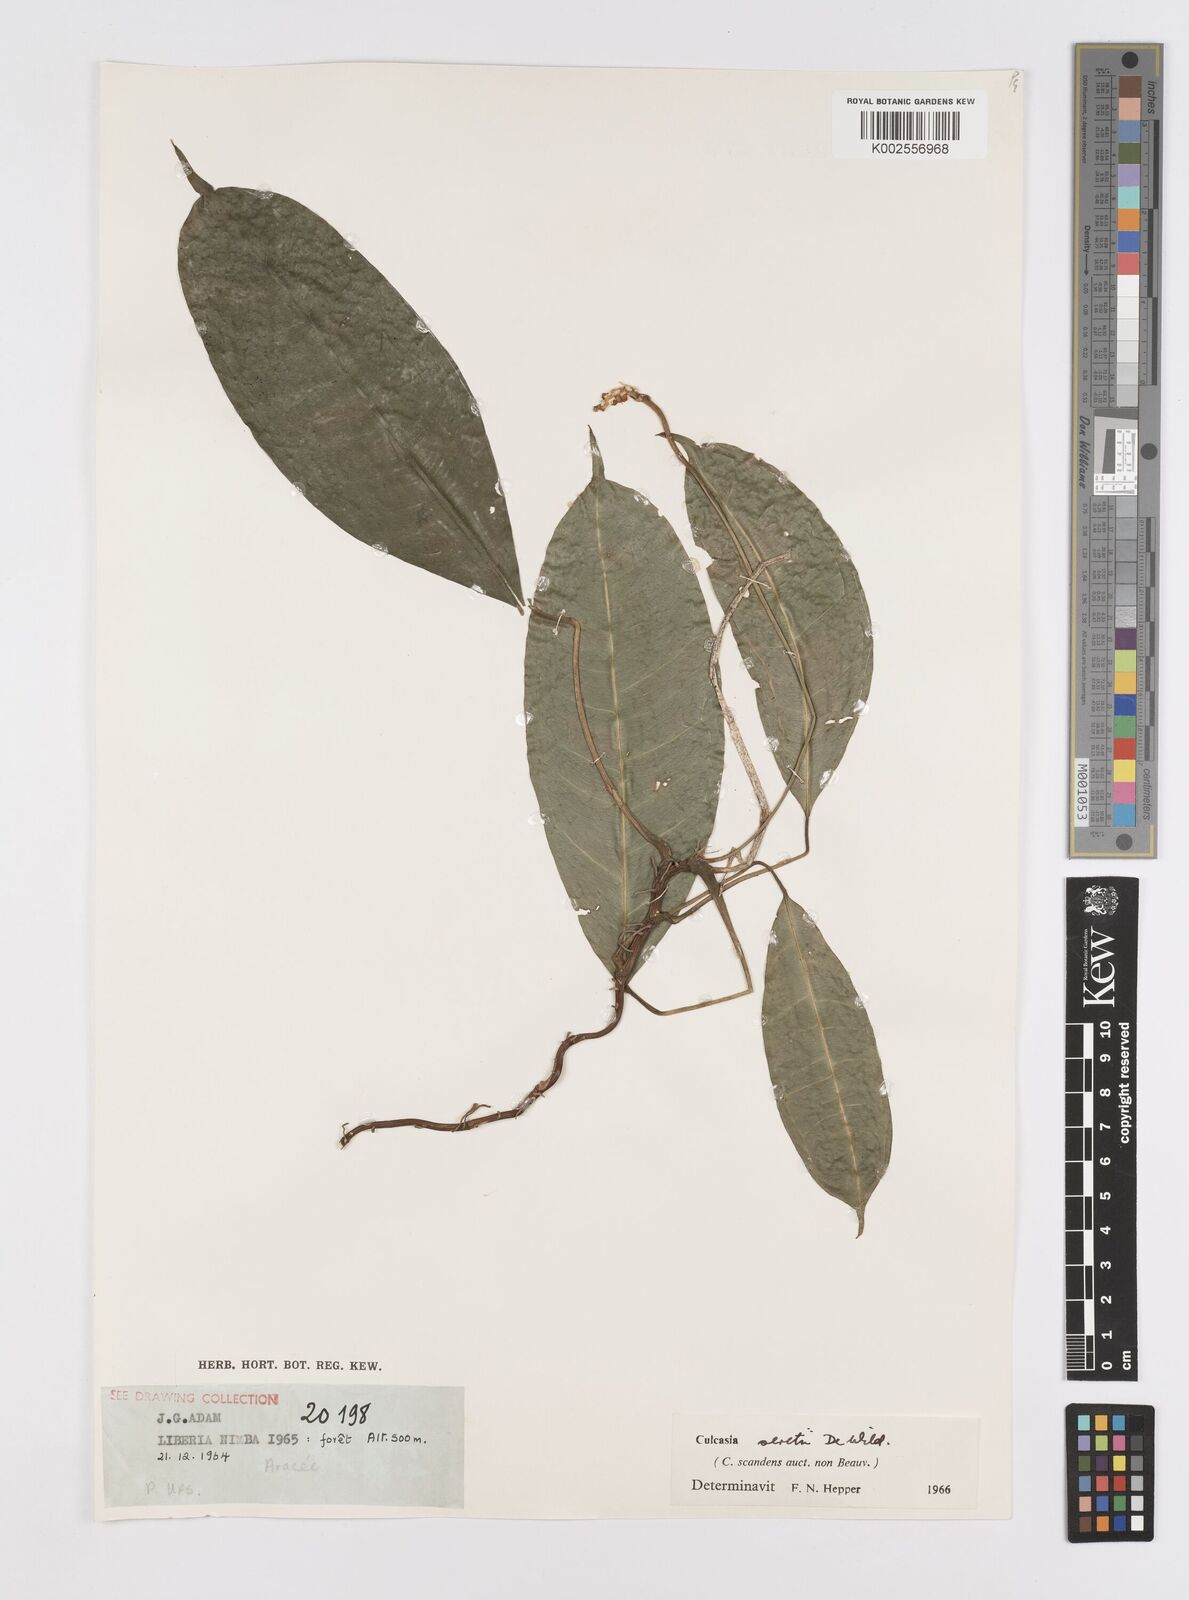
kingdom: Plantae
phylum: Tracheophyta
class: Liliopsida
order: Alismatales
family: Araceae
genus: Culcasia
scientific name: Culcasia seretii
